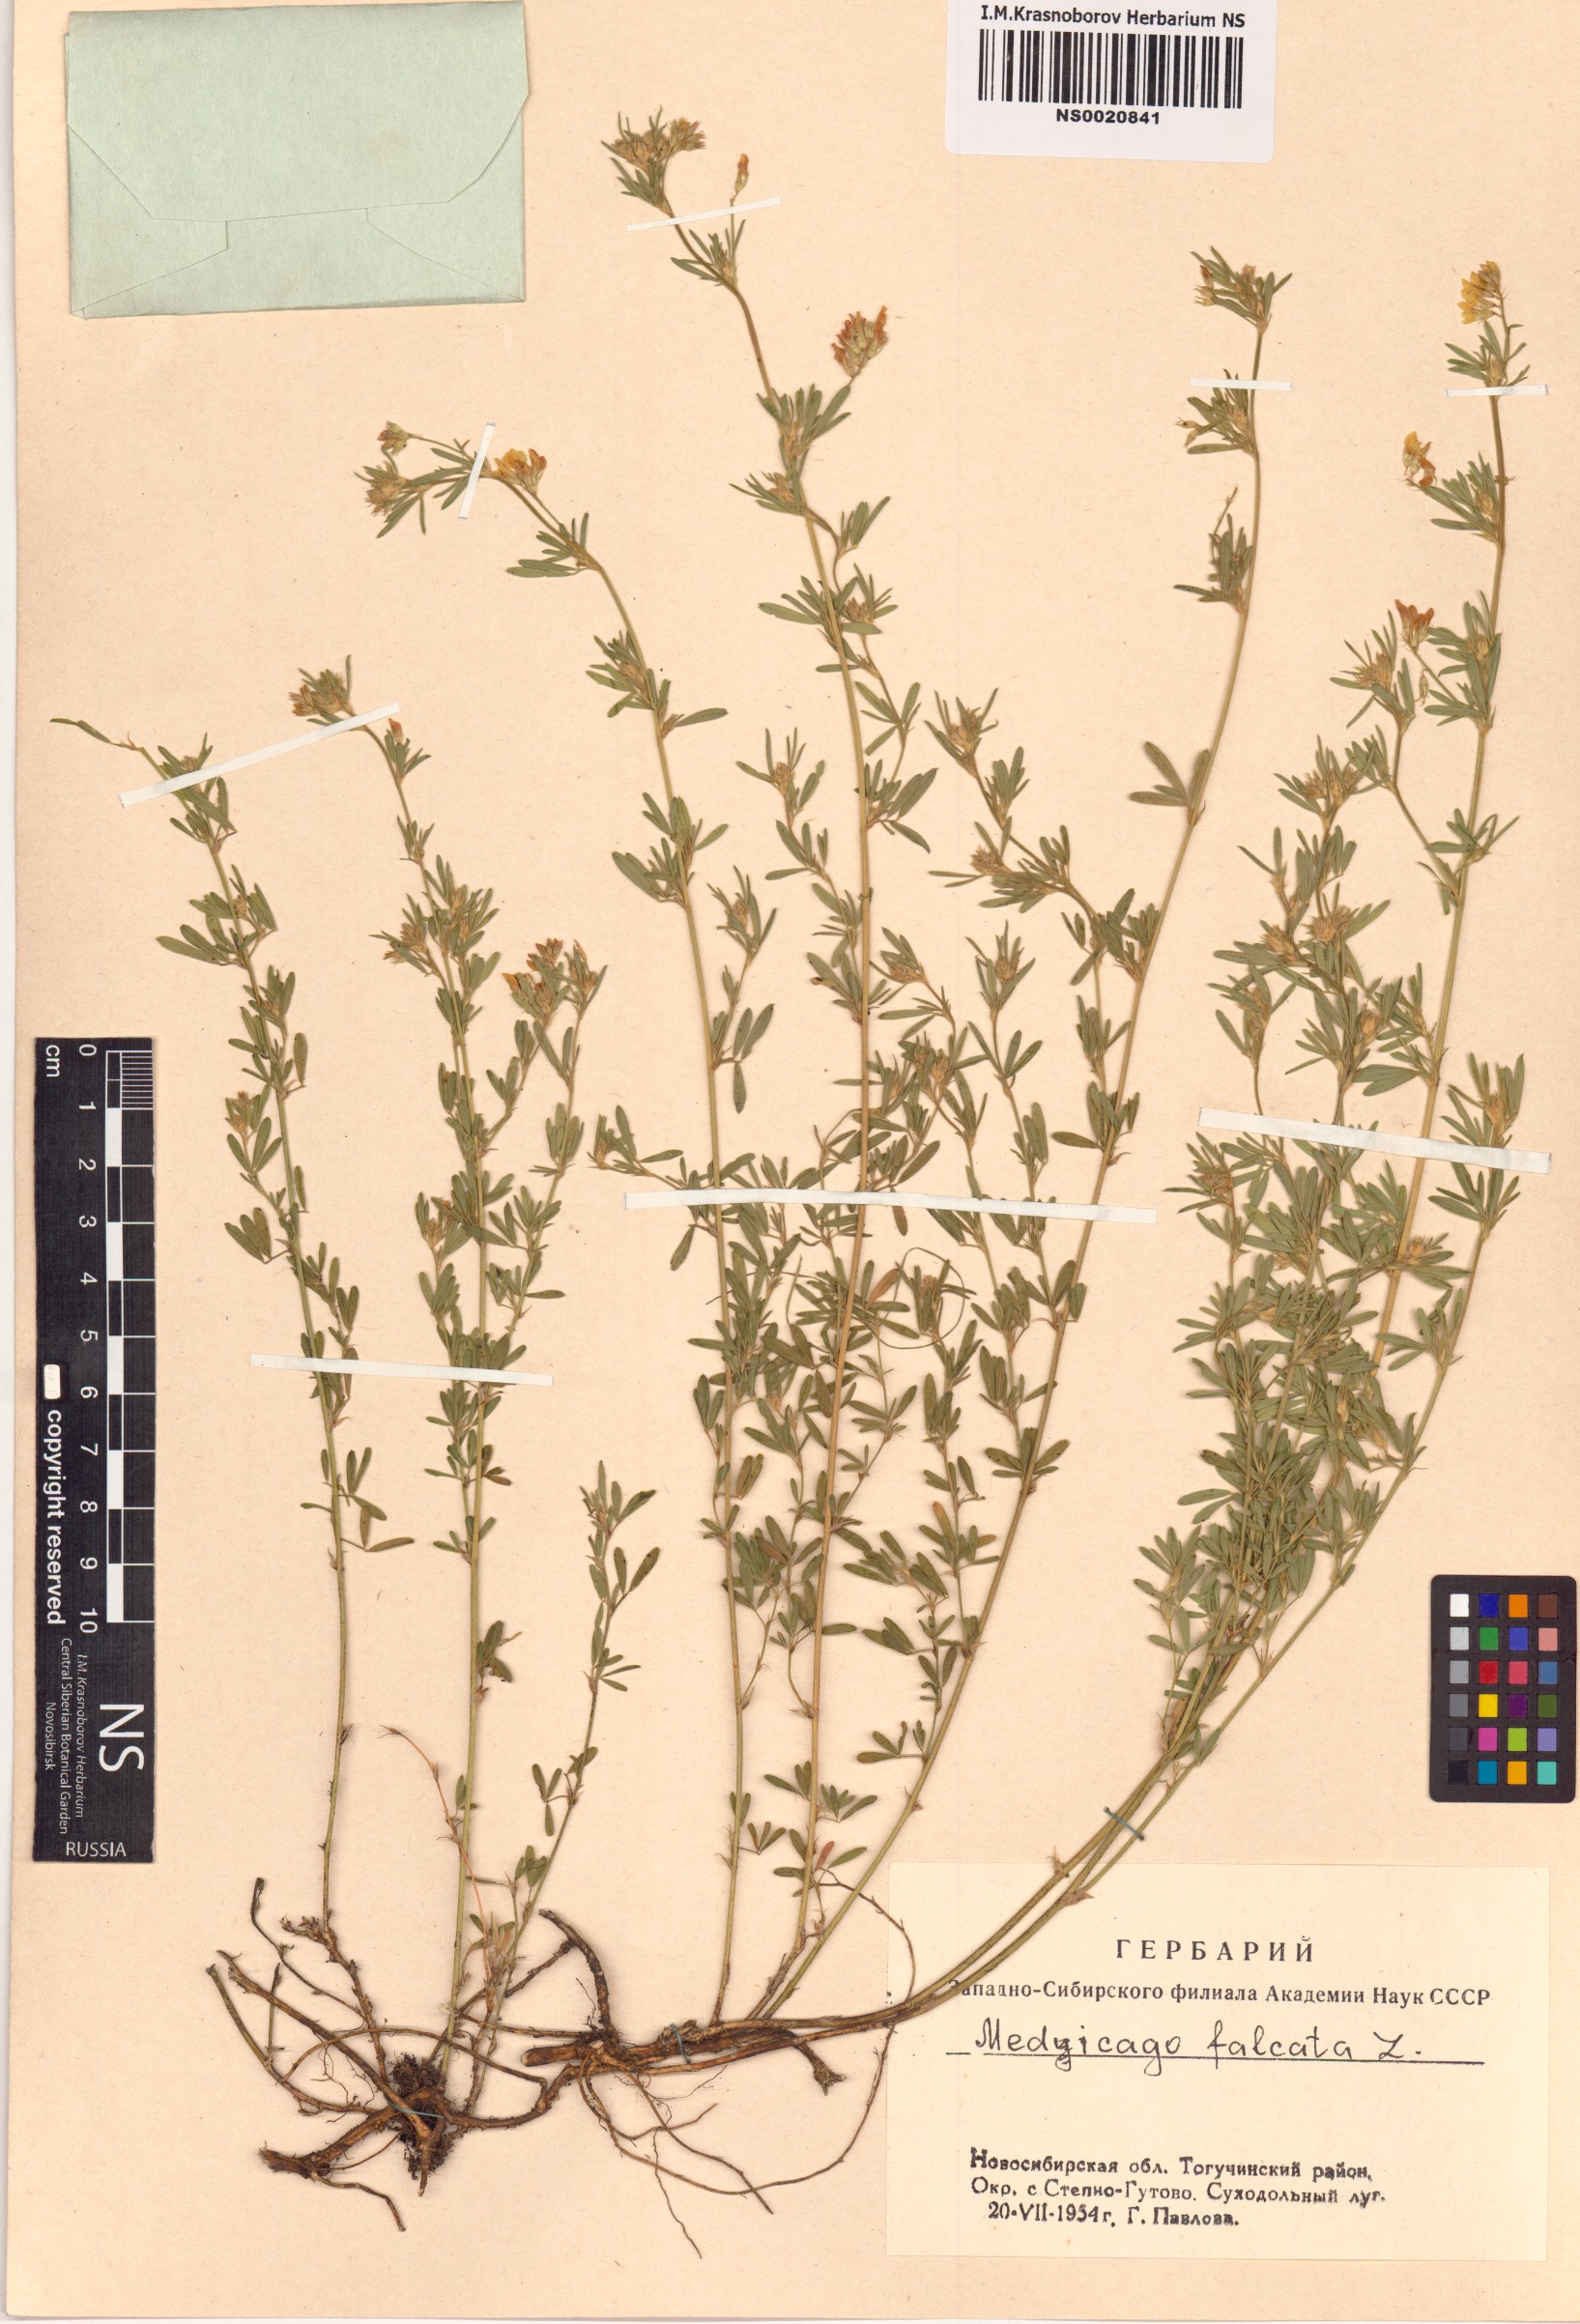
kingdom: Plantae
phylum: Tracheophyta
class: Magnoliopsida
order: Fabales
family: Fabaceae
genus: Medicago
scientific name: Medicago falcata
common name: Sickle medick
